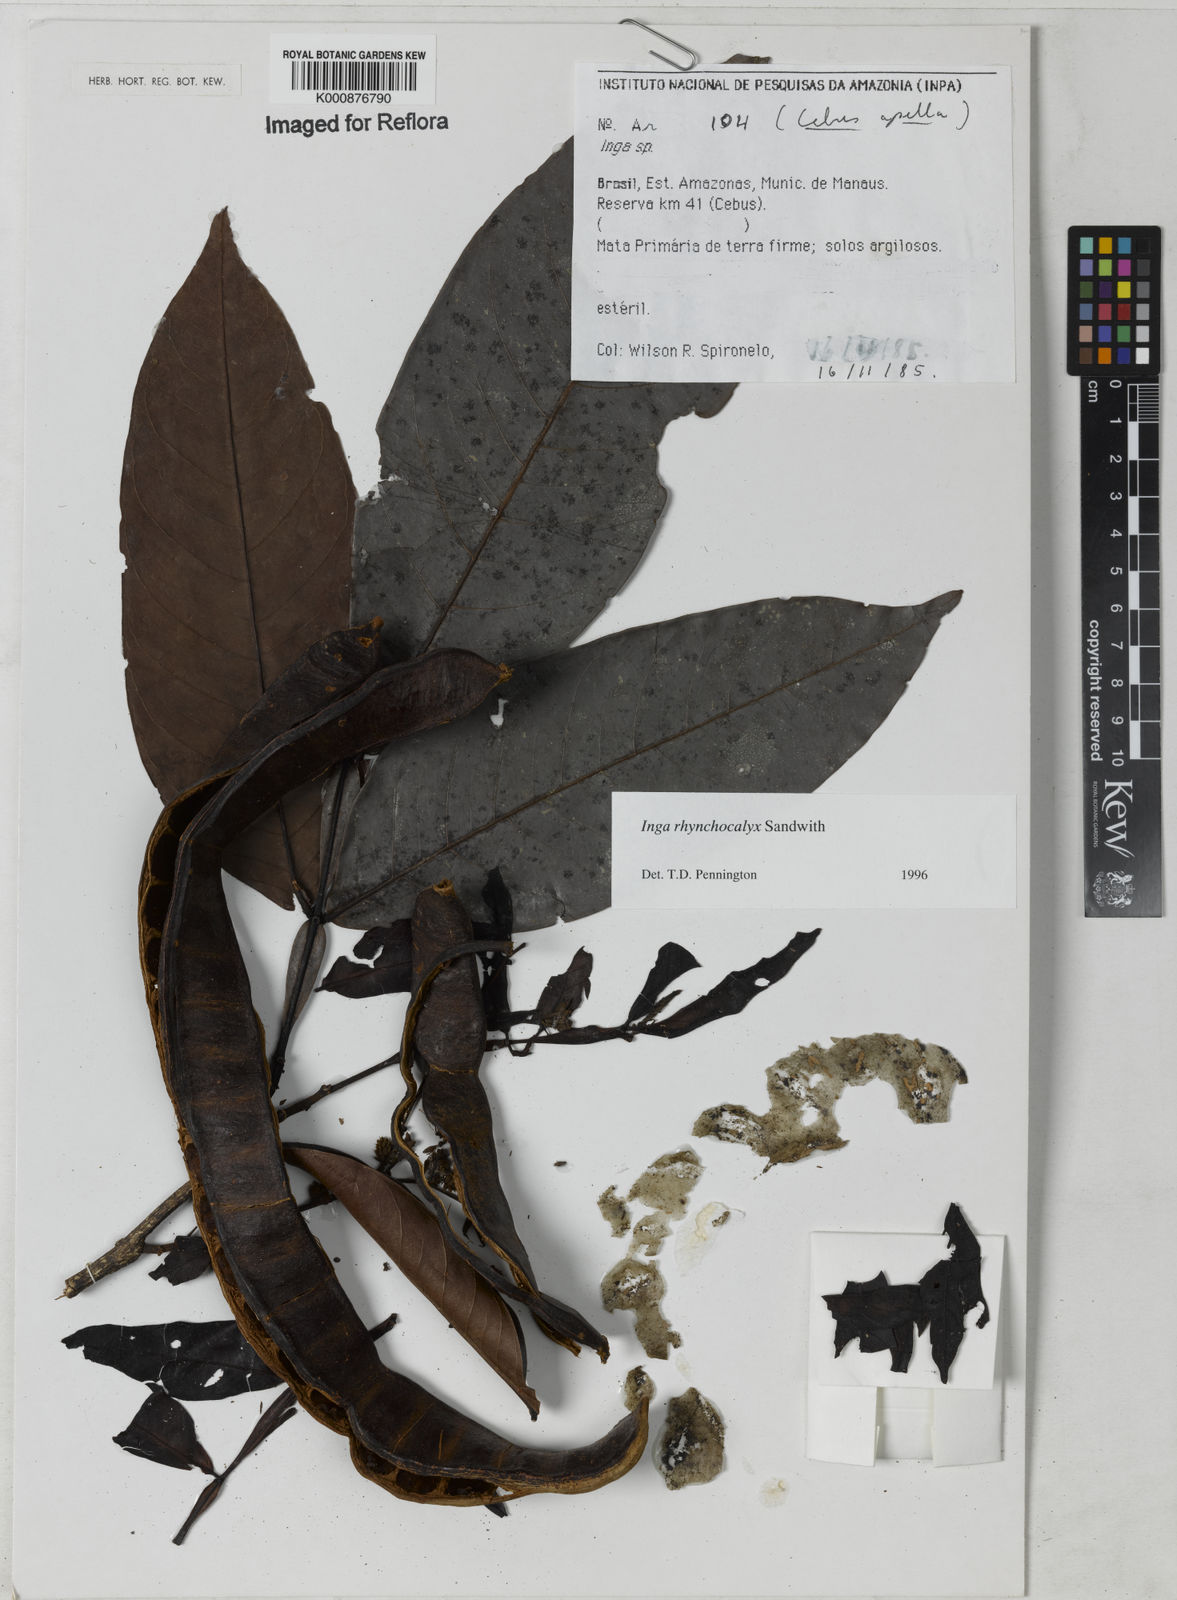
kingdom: Plantae
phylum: Tracheophyta
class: Magnoliopsida
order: Fabales
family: Fabaceae
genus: Inga
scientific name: Inga rhynchocalyx
